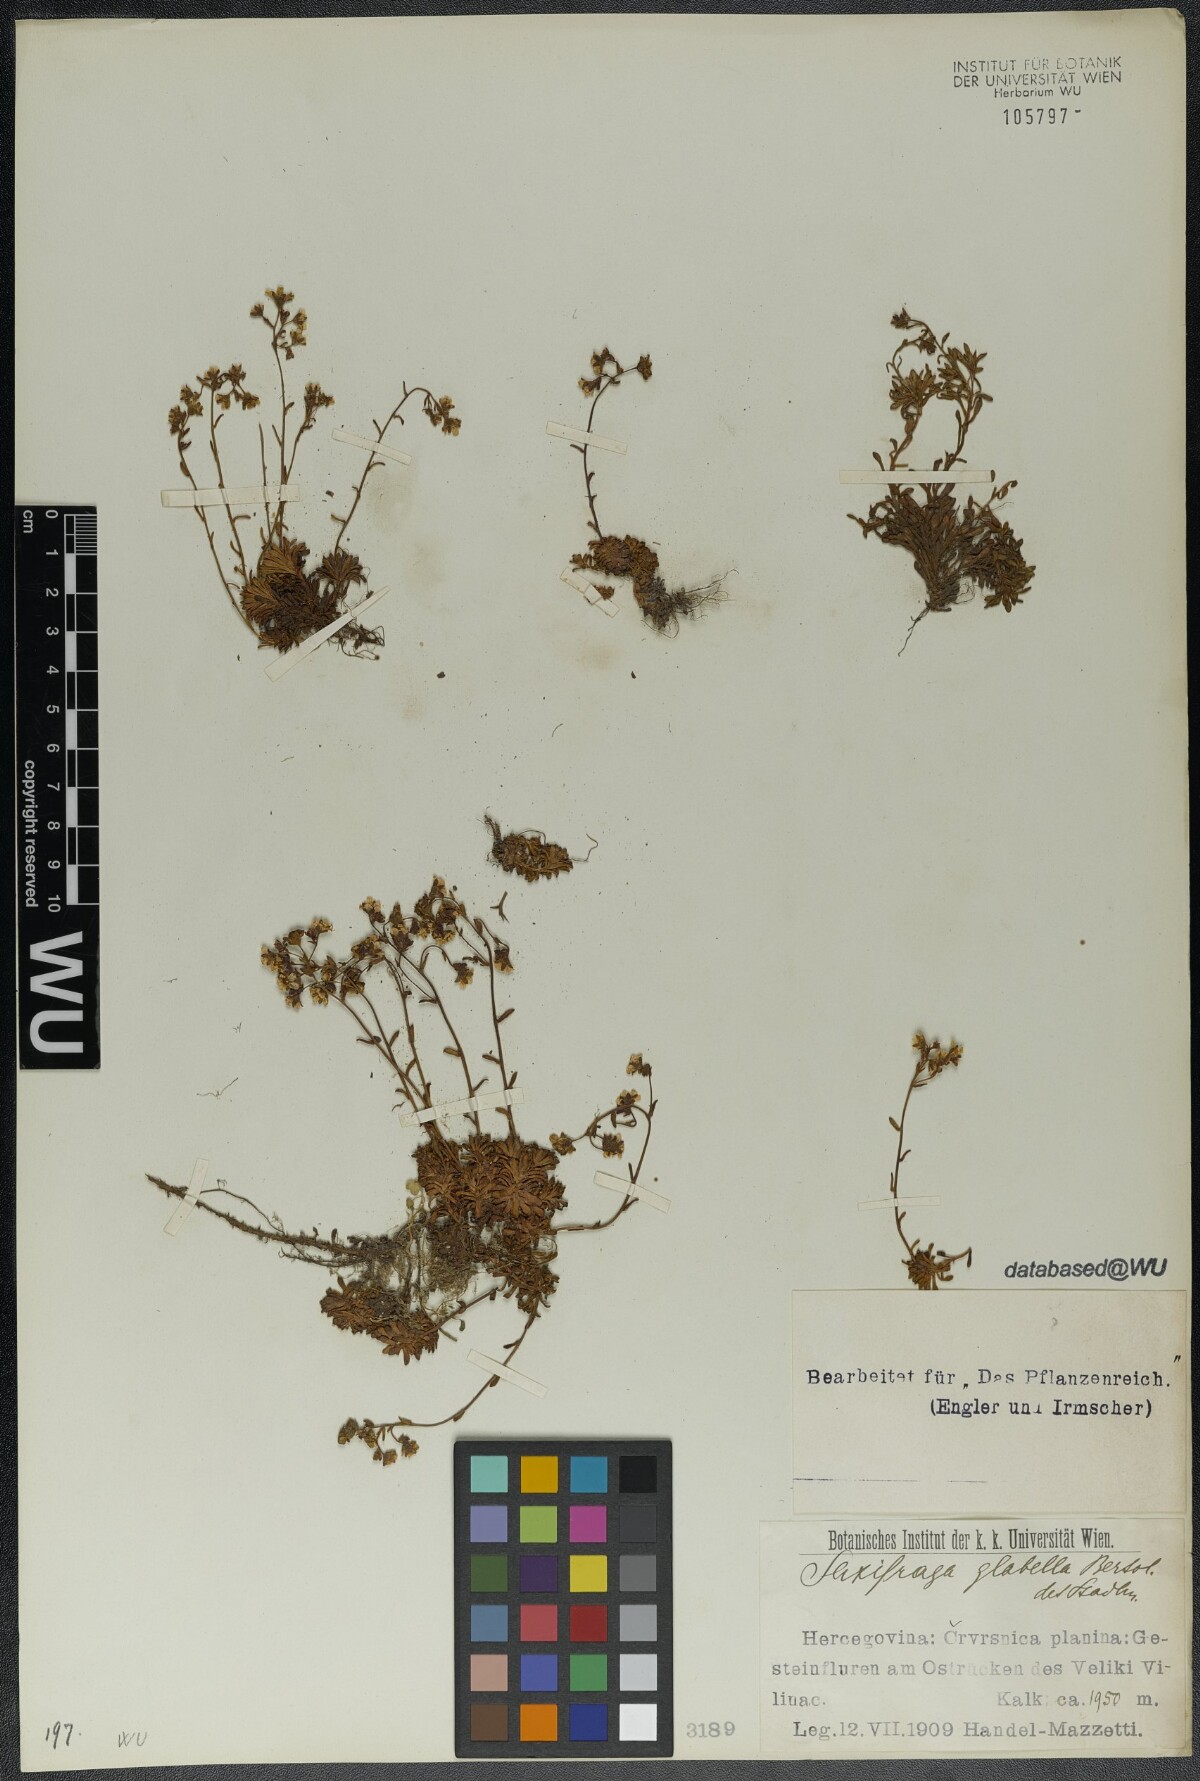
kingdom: Plantae
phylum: Tracheophyta
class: Magnoliopsida
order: Saxifragales
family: Saxifragaceae
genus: Saxifraga
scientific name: Saxifraga glabella
